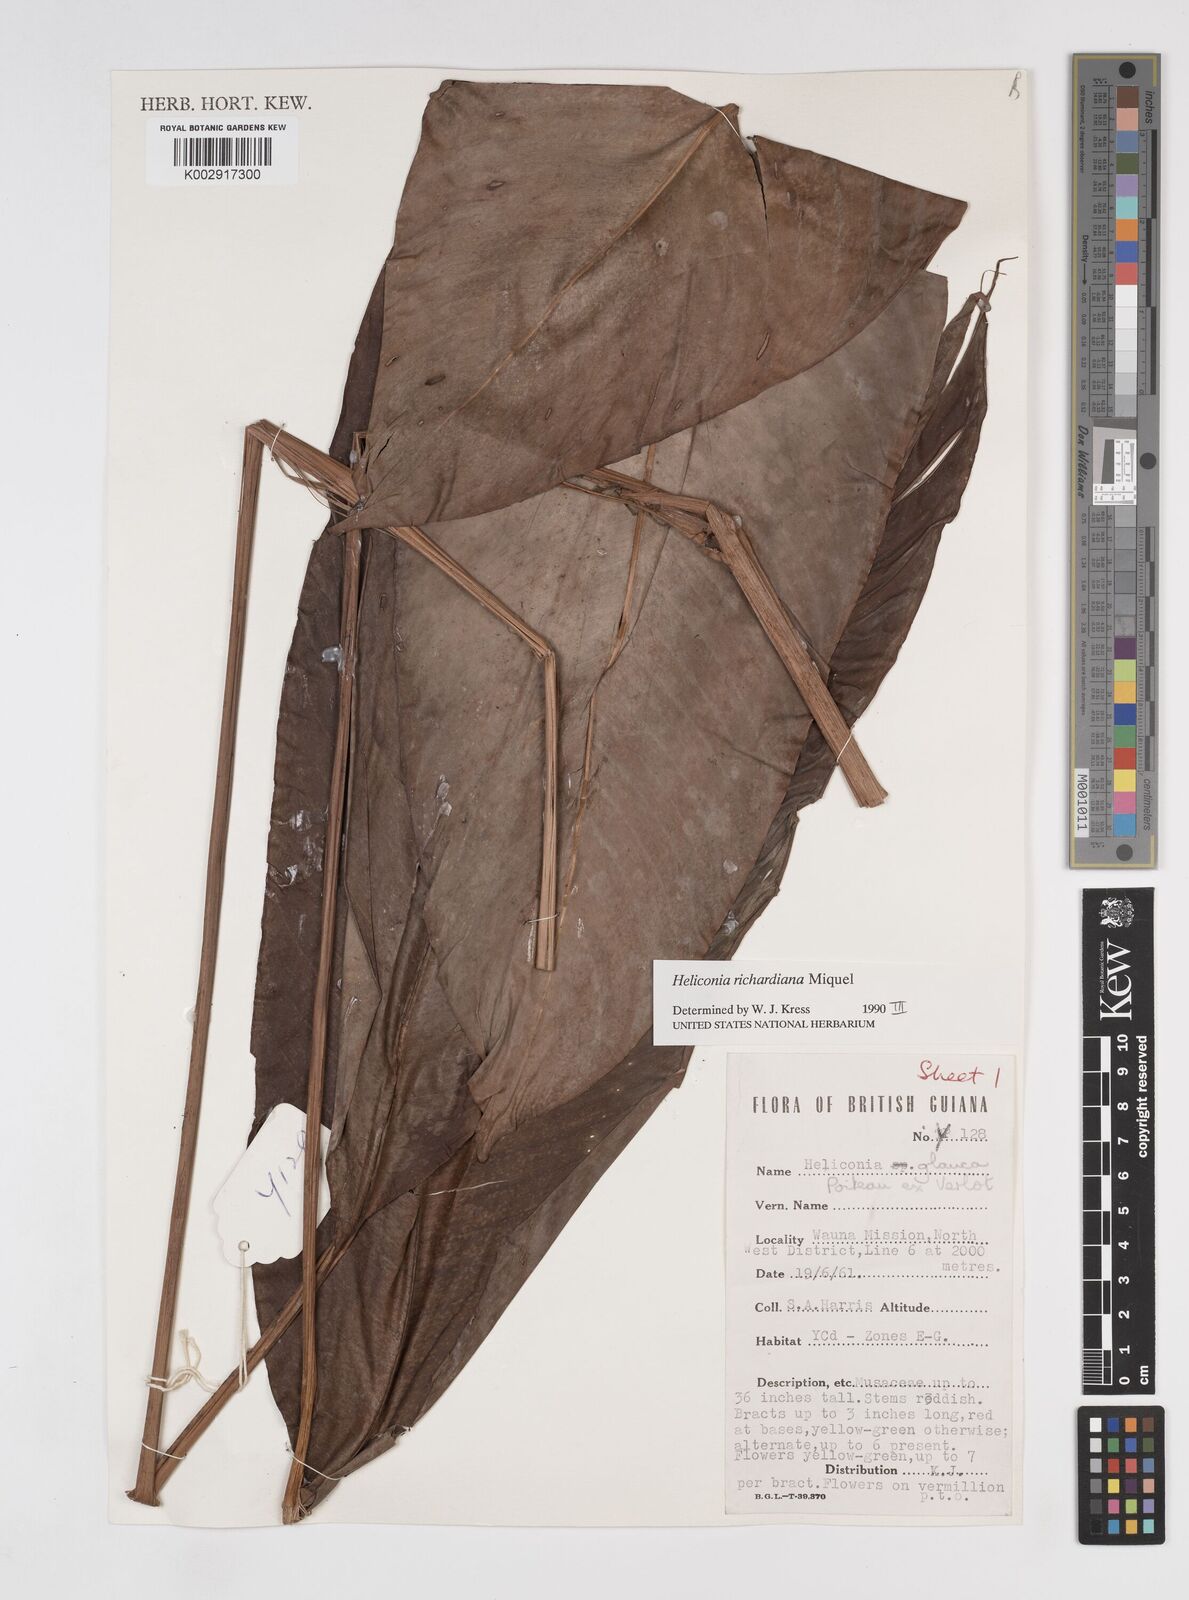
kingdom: Plantae
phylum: Tracheophyta
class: Liliopsida
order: Zingiberales
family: Heliconiaceae
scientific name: Heliconiaceae
